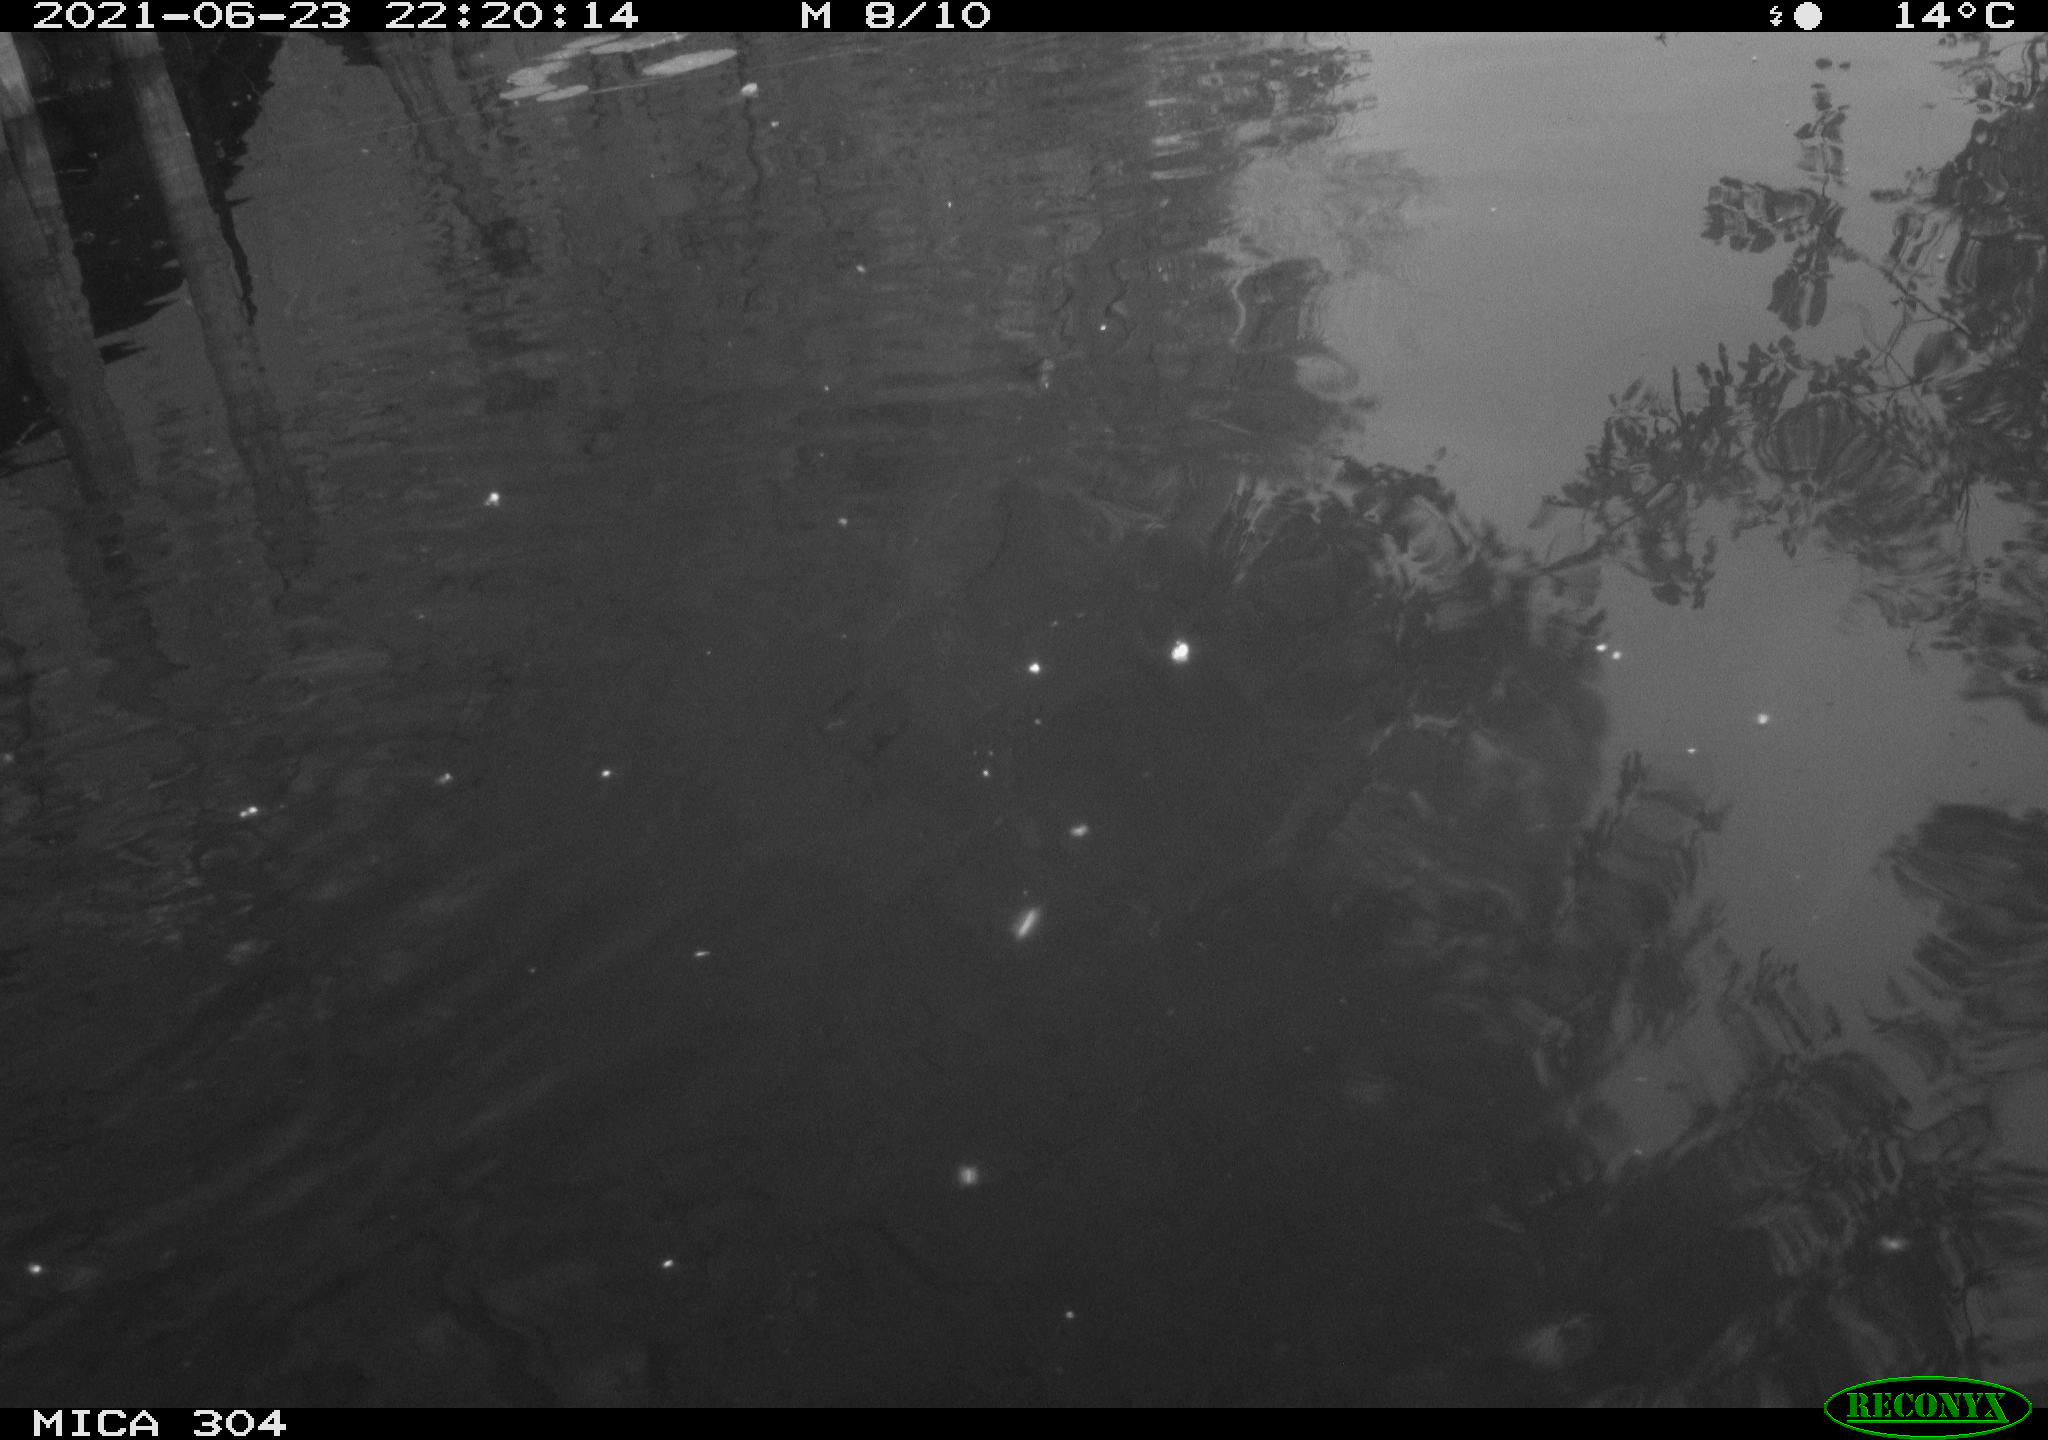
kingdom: Animalia
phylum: Chordata
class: Aves
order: Anseriformes
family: Anatidae
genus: Anas
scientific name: Anas platyrhynchos
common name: Mallard
